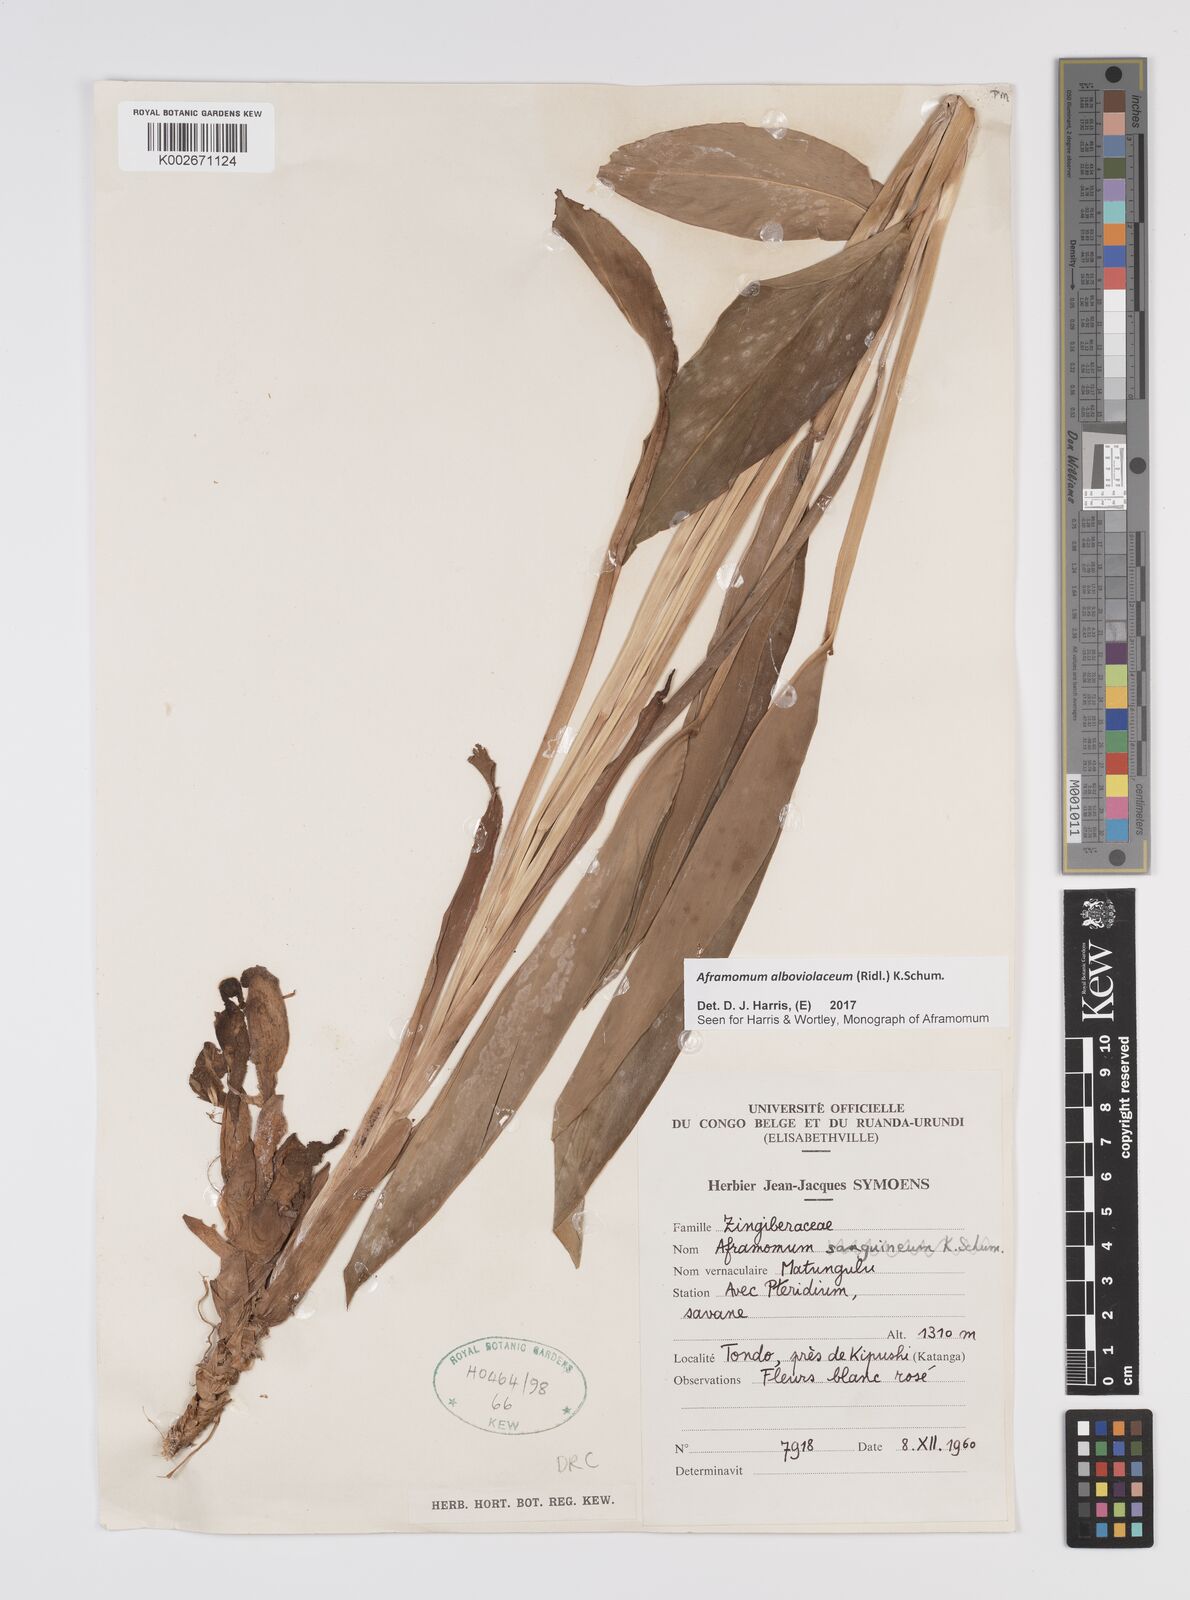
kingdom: Plantae
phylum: Tracheophyta
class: Liliopsida
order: Zingiberales
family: Zingiberaceae
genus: Aframomum
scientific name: Aframomum alboviolaceum
